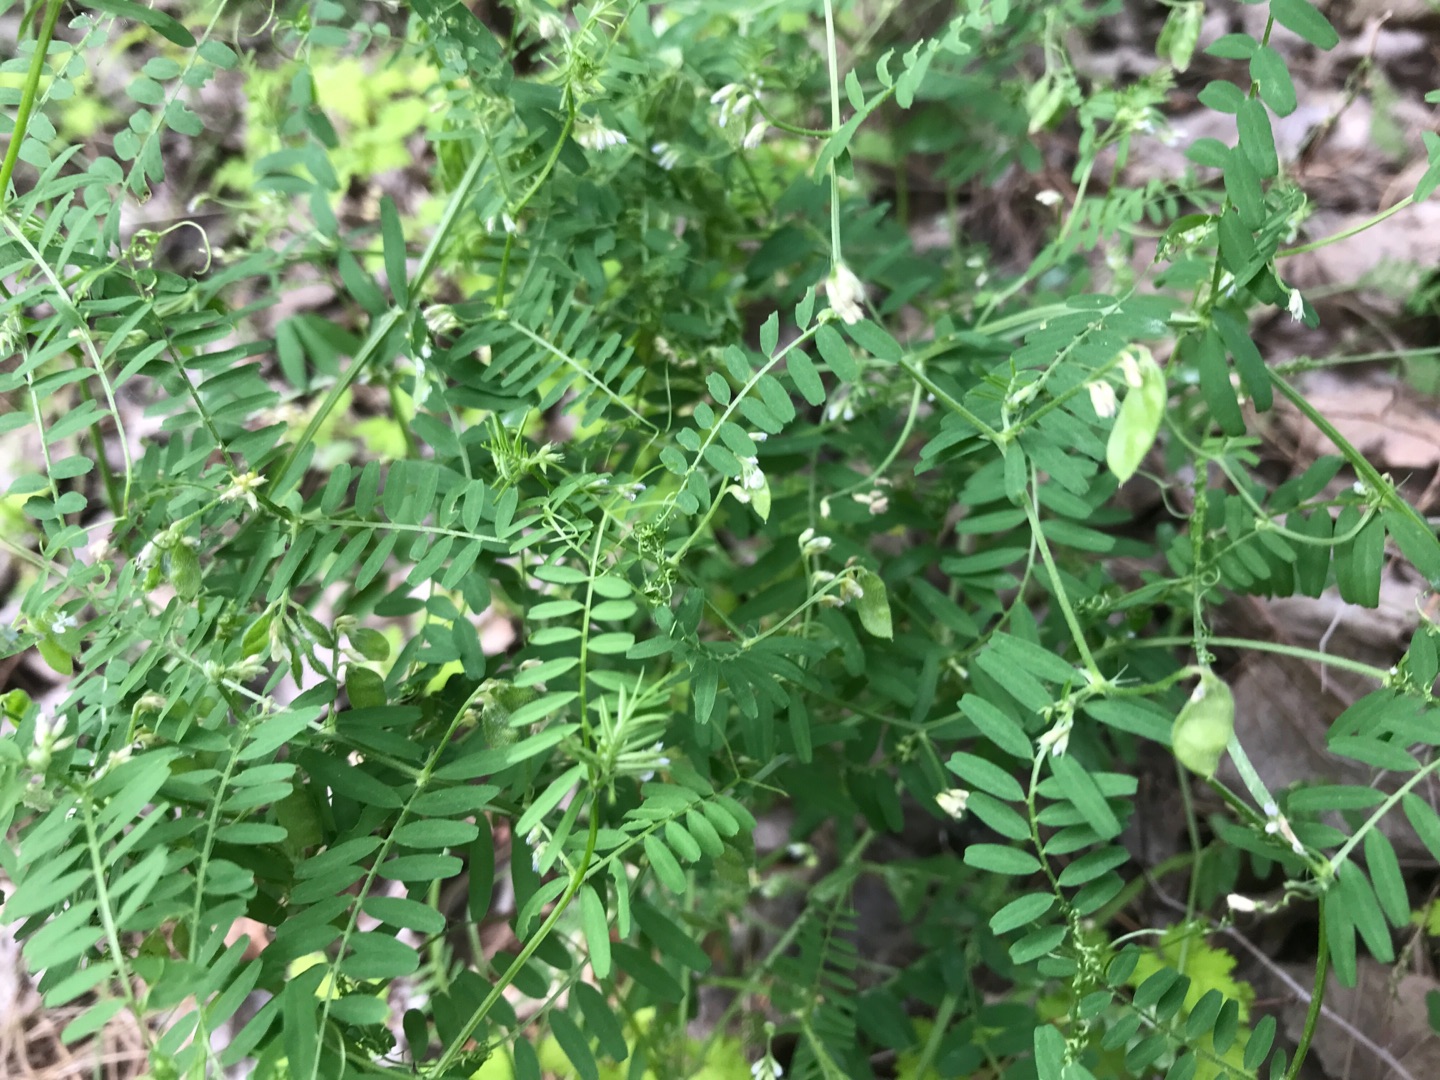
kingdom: Plantae
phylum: Tracheophyta
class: Magnoliopsida
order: Fabales
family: Fabaceae
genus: Vicia
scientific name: Vicia hirsuta
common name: Tofrøet vikke
